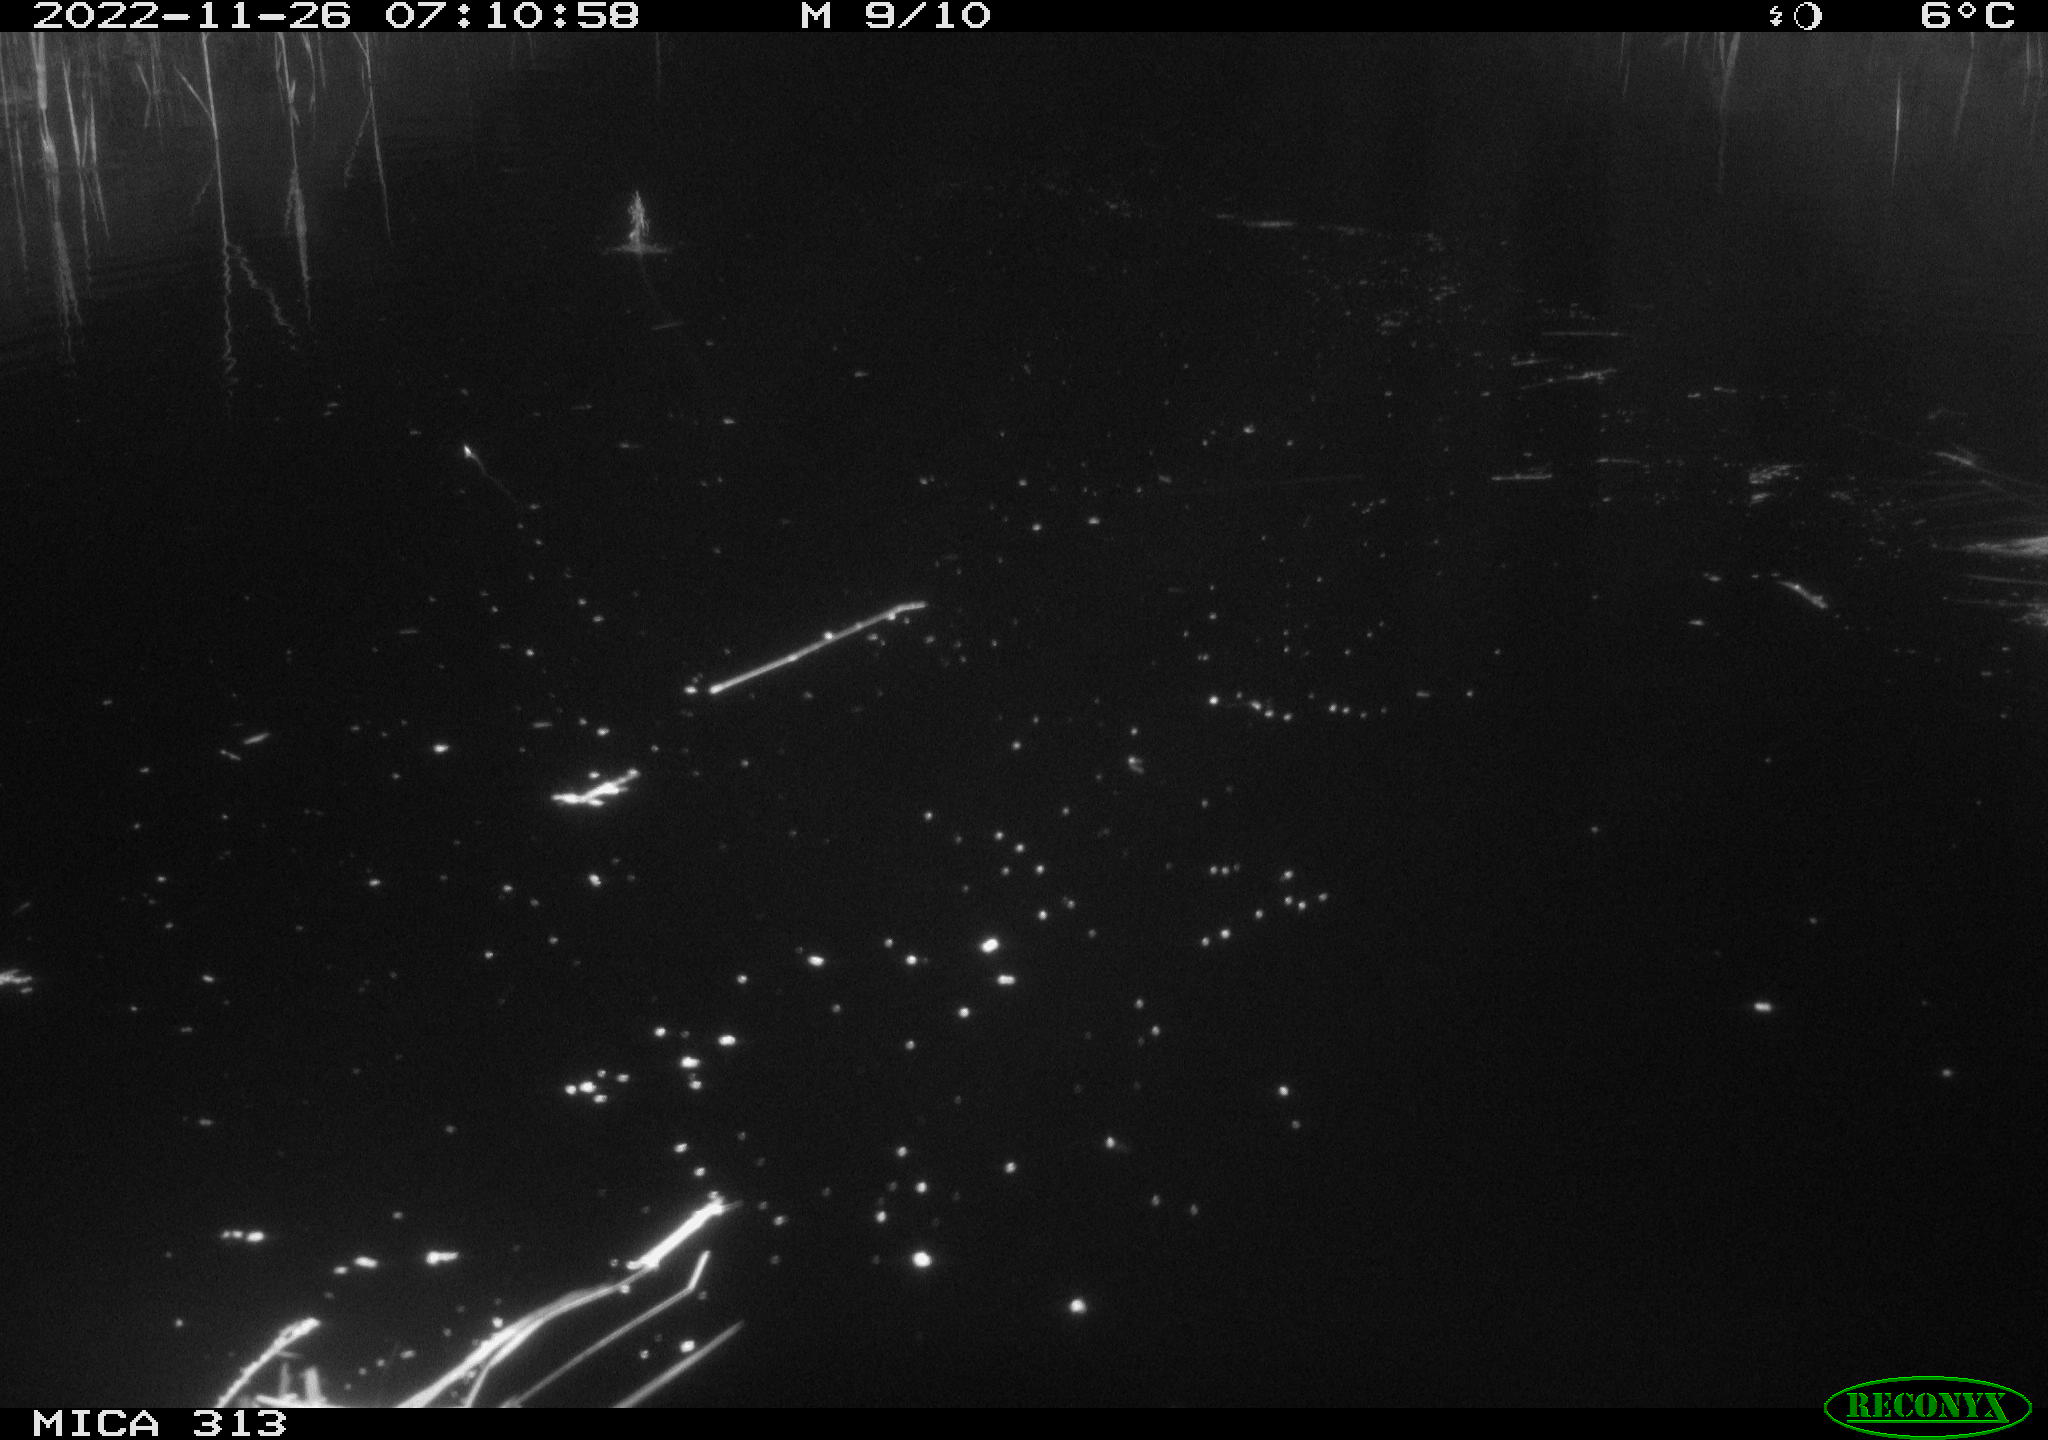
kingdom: Animalia
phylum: Chordata
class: Aves
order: Gruiformes
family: Rallidae
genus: Gallinula
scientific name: Gallinula chloropus
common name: Common moorhen
